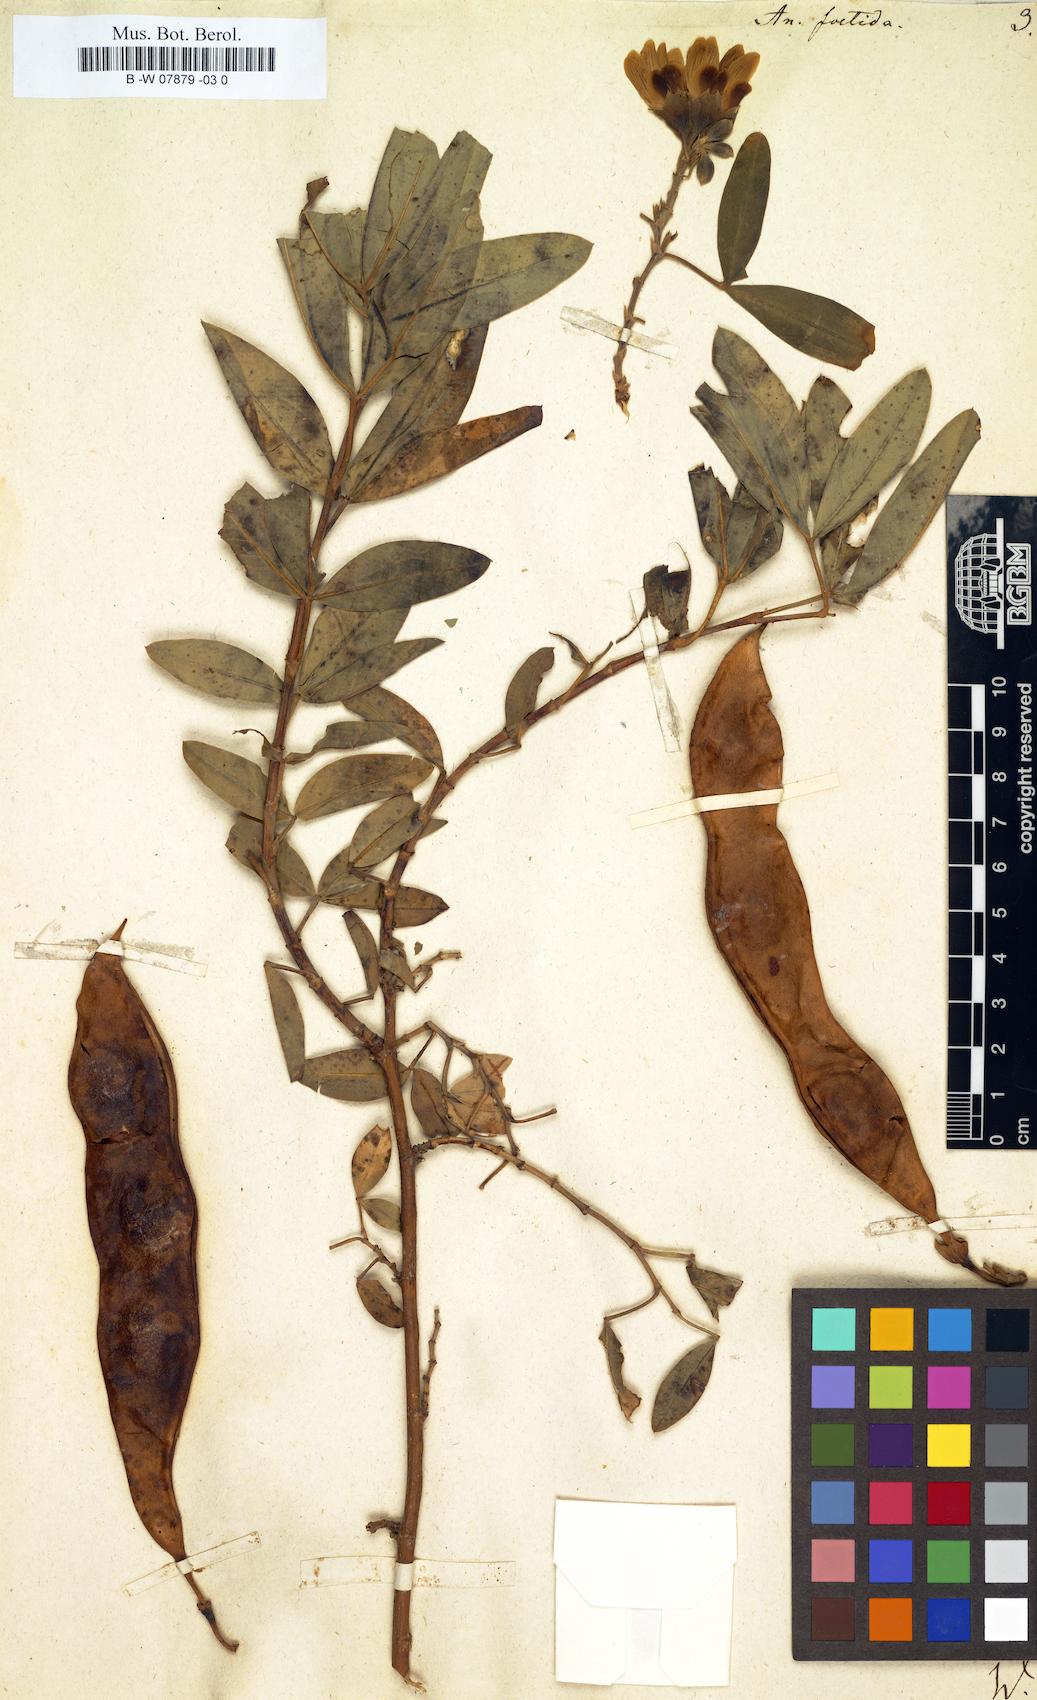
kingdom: Plantae
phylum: Tracheophyta
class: Magnoliopsida
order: Fabales
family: Fabaceae
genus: Anagyris
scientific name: Anagyris foetida
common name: Stinking bean trefoil
